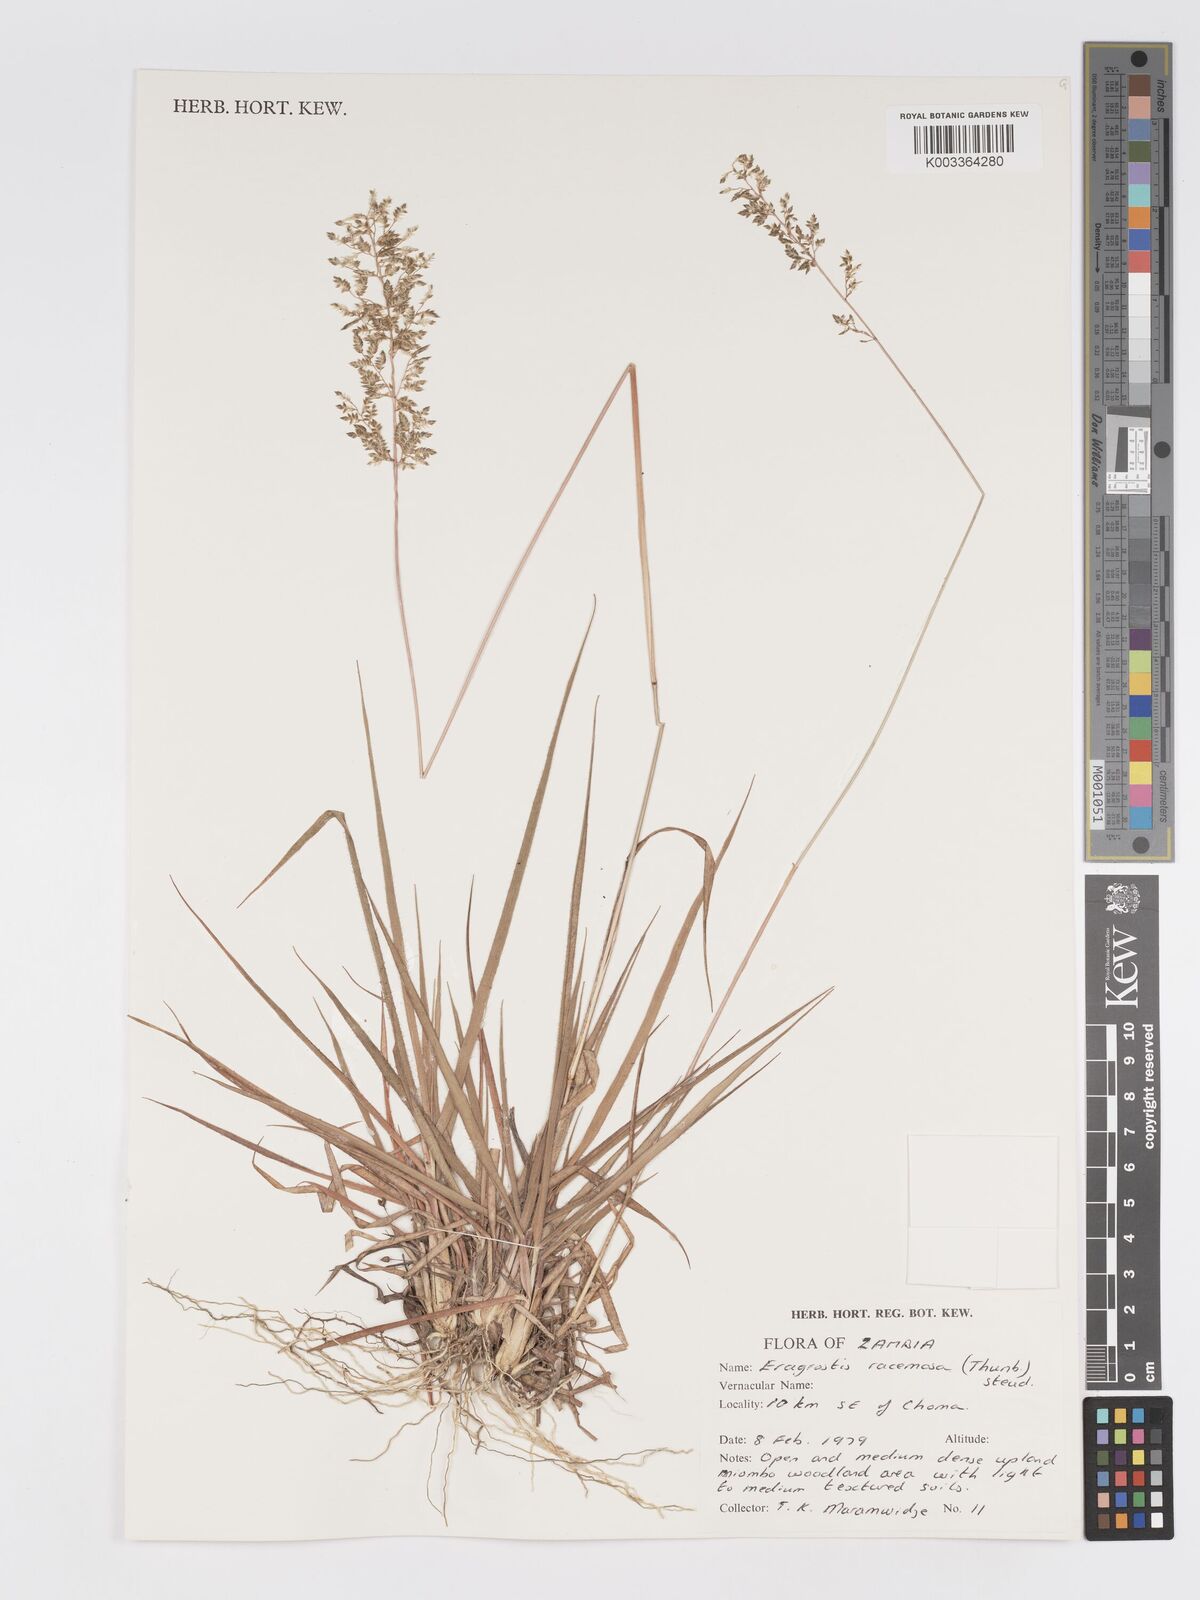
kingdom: Plantae
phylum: Tracheophyta
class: Liliopsida
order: Poales
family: Poaceae
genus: Eragrostis
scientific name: Eragrostis racemosa
